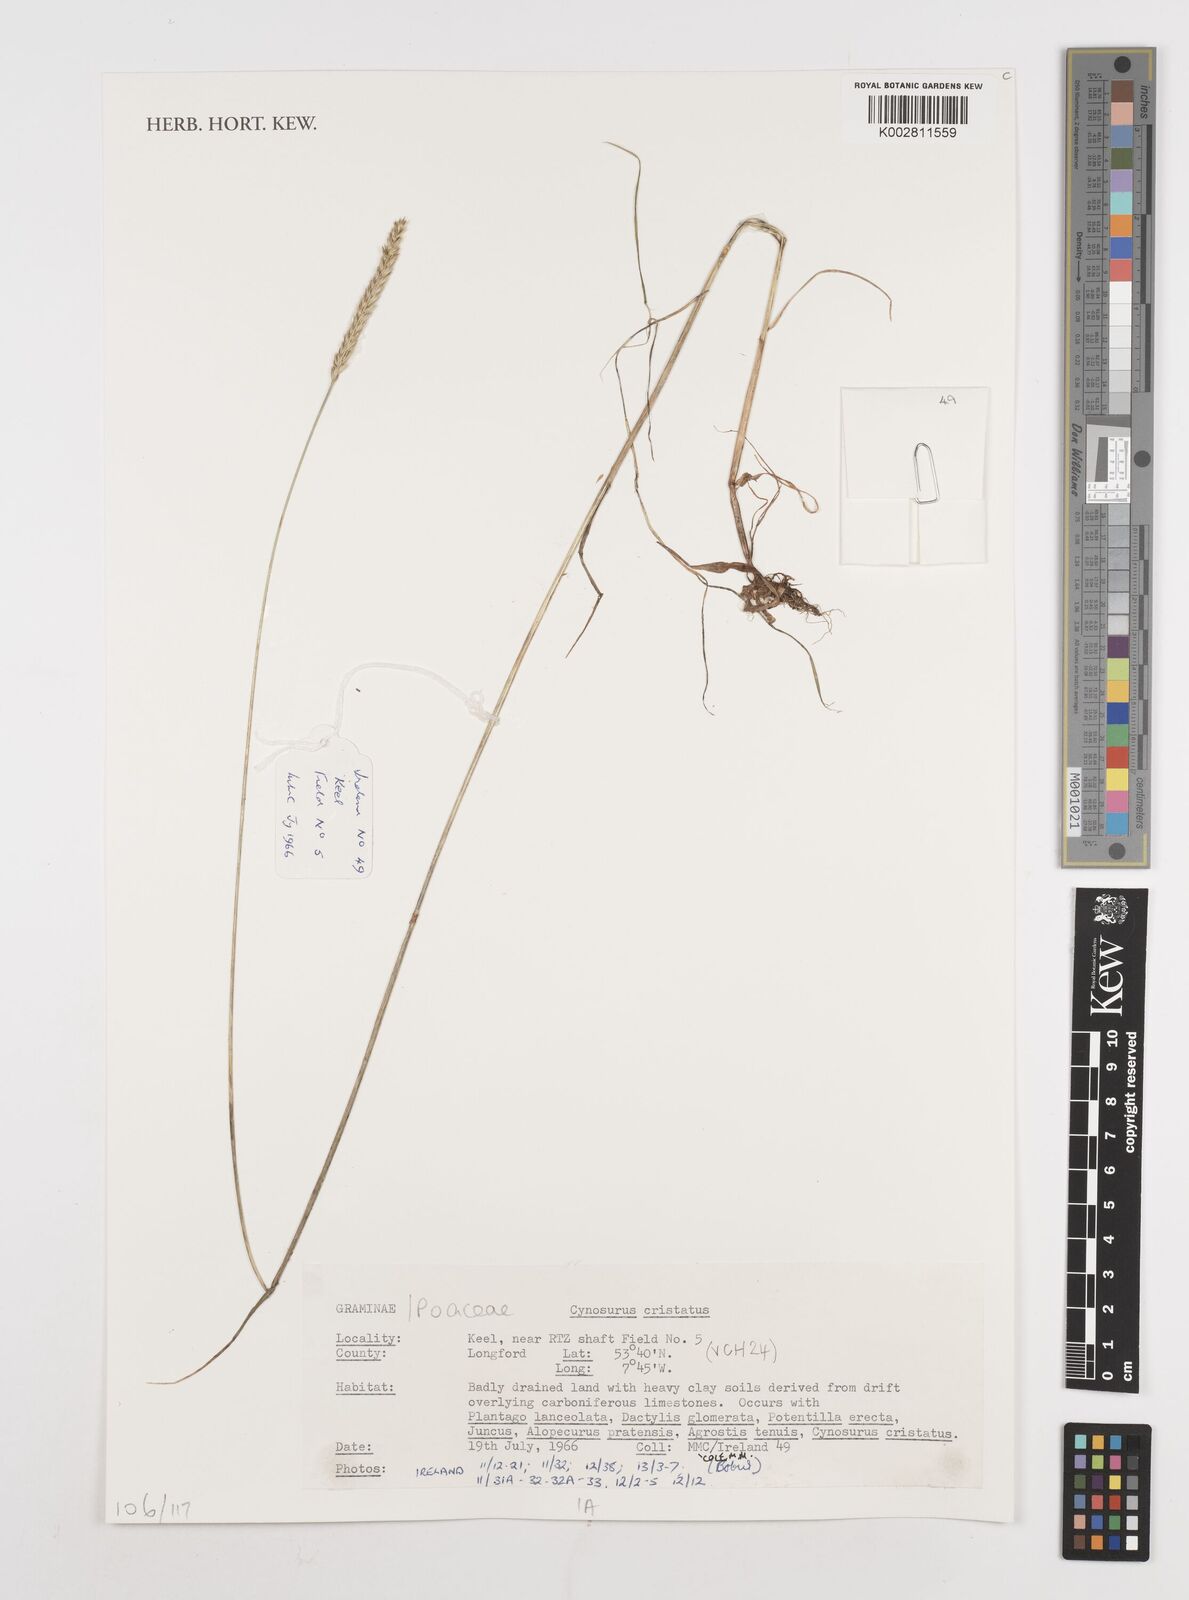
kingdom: Plantae
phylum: Tracheophyta
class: Liliopsida
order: Poales
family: Poaceae
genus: Cynosurus
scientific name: Cynosurus cristatus
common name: Crested dog's-tail
